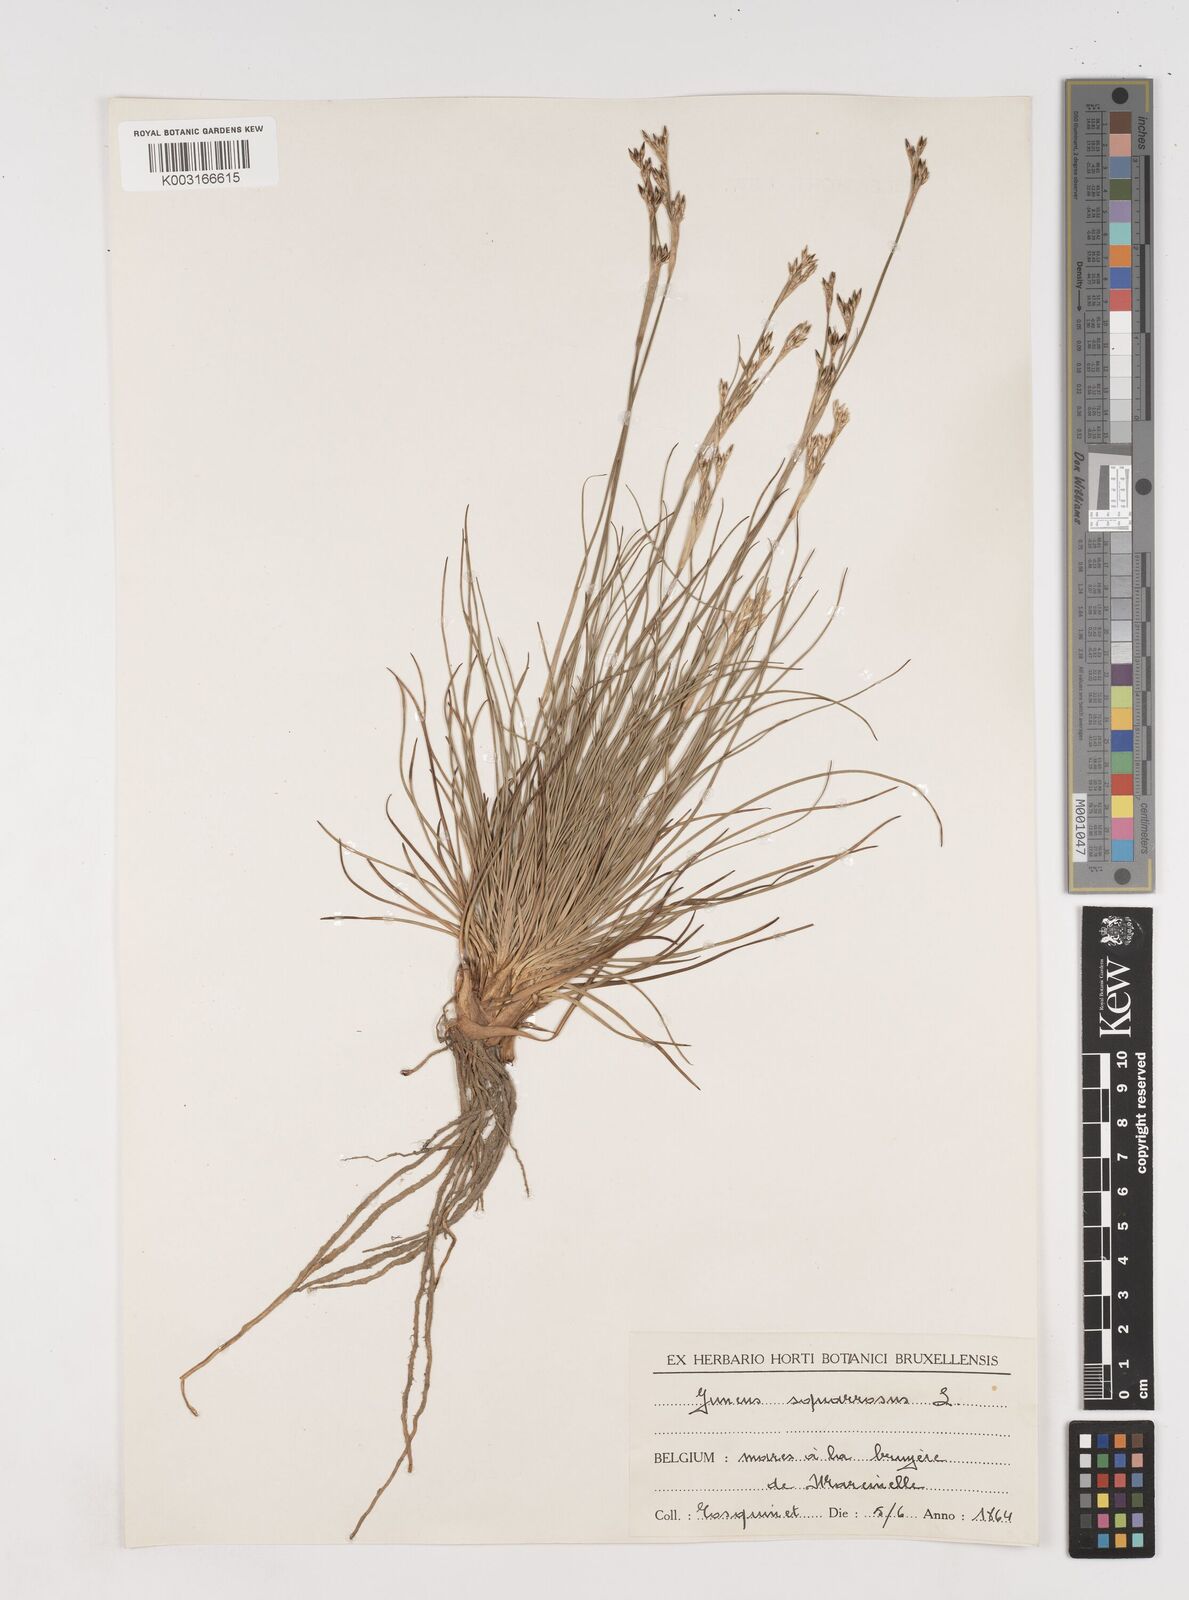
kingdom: Plantae
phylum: Tracheophyta
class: Liliopsida
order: Poales
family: Juncaceae
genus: Juncus
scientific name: Juncus squarrosus
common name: Heath rush
